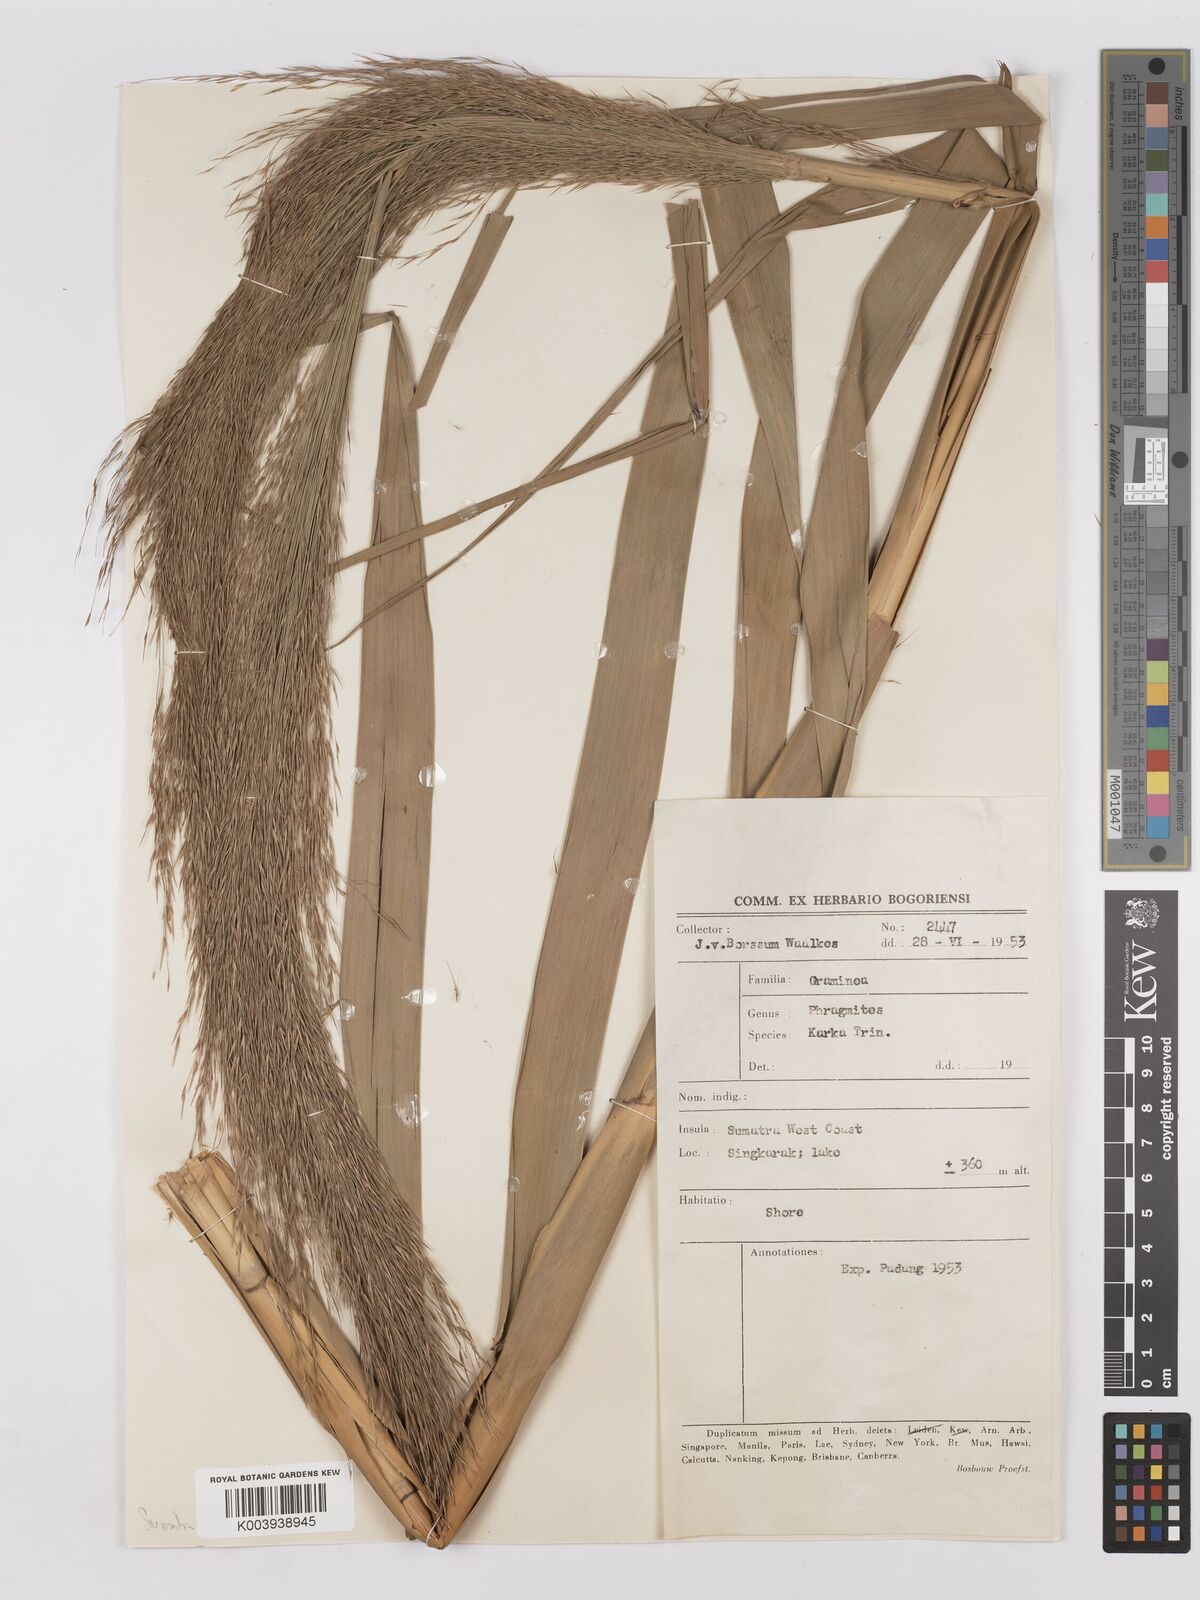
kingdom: Plantae
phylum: Tracheophyta
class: Liliopsida
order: Poales
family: Poaceae
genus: Phragmites
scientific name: Phragmites karka
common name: Tropical reed
